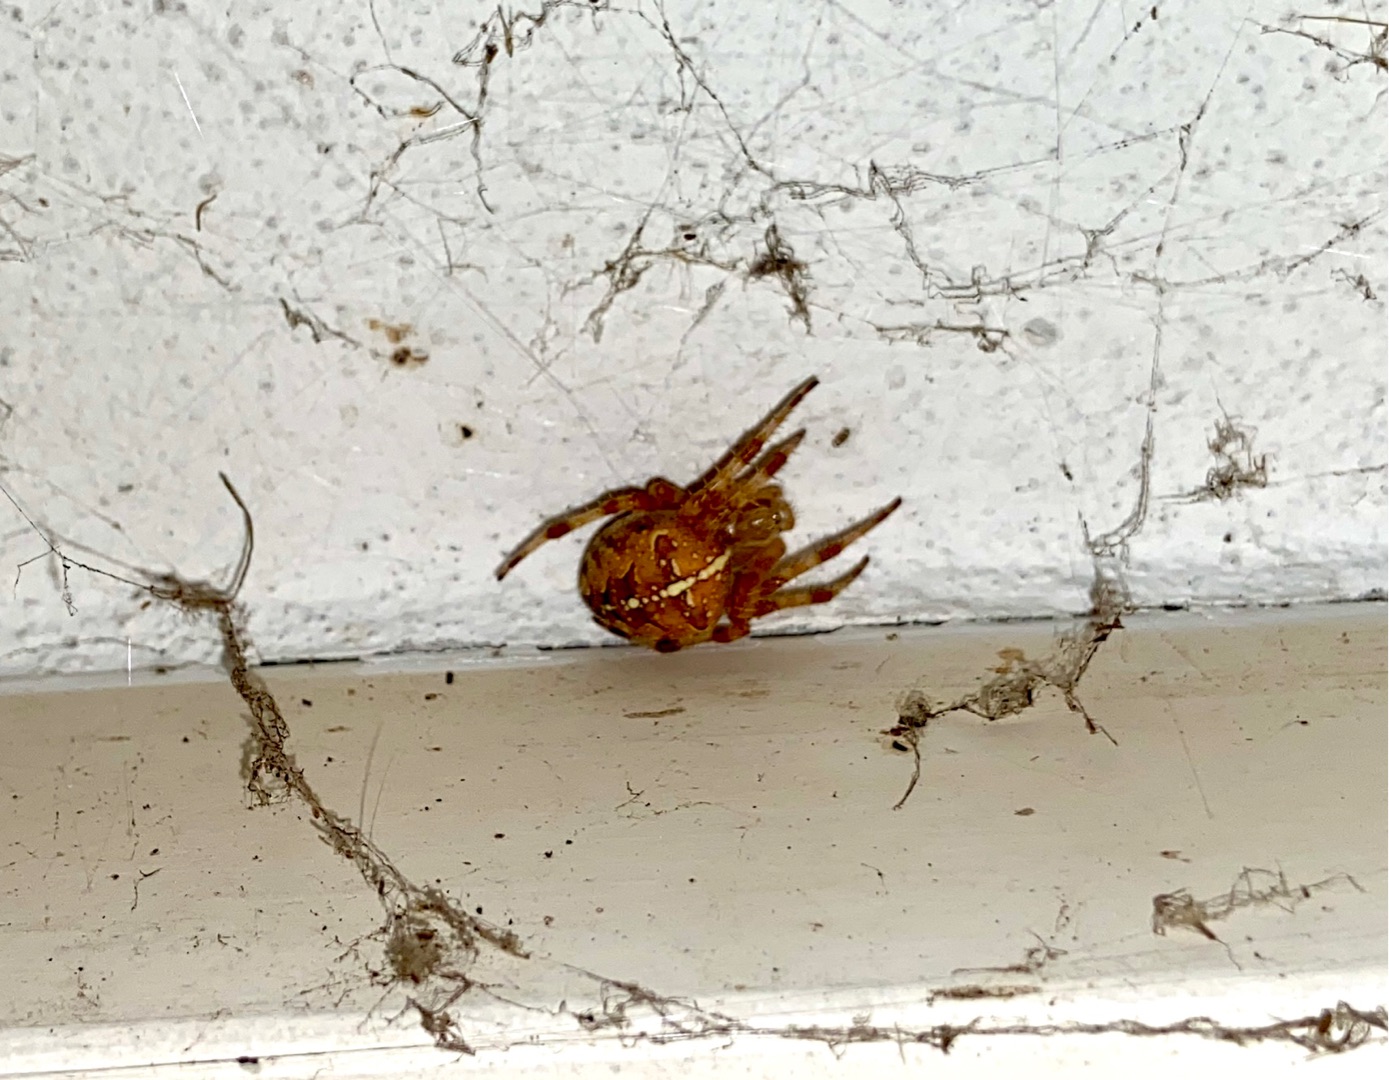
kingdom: Animalia
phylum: Arthropoda
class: Arachnida
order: Araneae
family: Araneidae
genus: Araneus
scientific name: Araneus diadematus
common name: Korsedderkop
